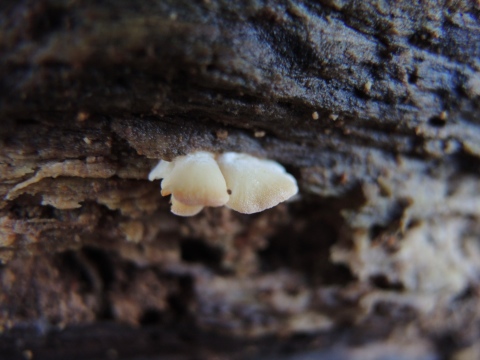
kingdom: Fungi
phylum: Basidiomycota
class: Agaricomycetes
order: Agaricales
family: Entolomataceae
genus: Clitopilus
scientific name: Clitopilus hobsonii
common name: Miller's oysterling
